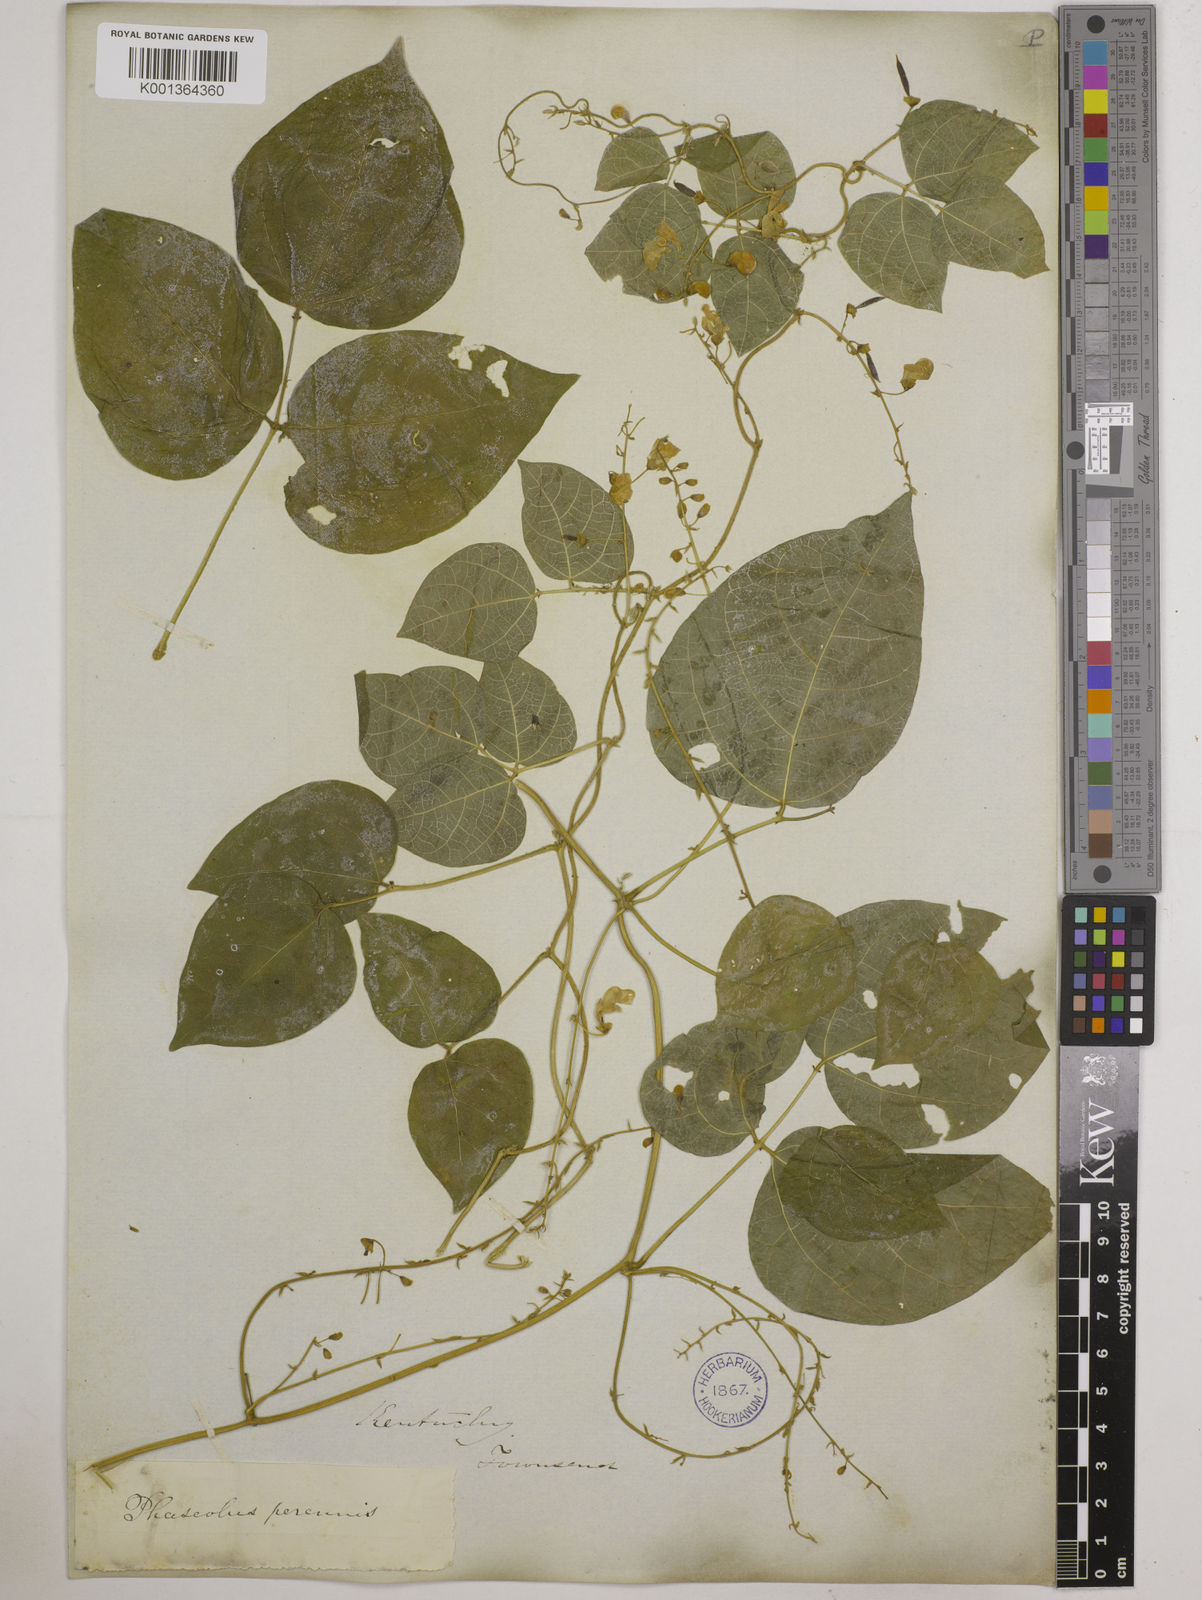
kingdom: Plantae
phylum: Tracheophyta
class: Magnoliopsida
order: Fabales
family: Fabaceae
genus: Phaseolus
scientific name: Phaseolus
